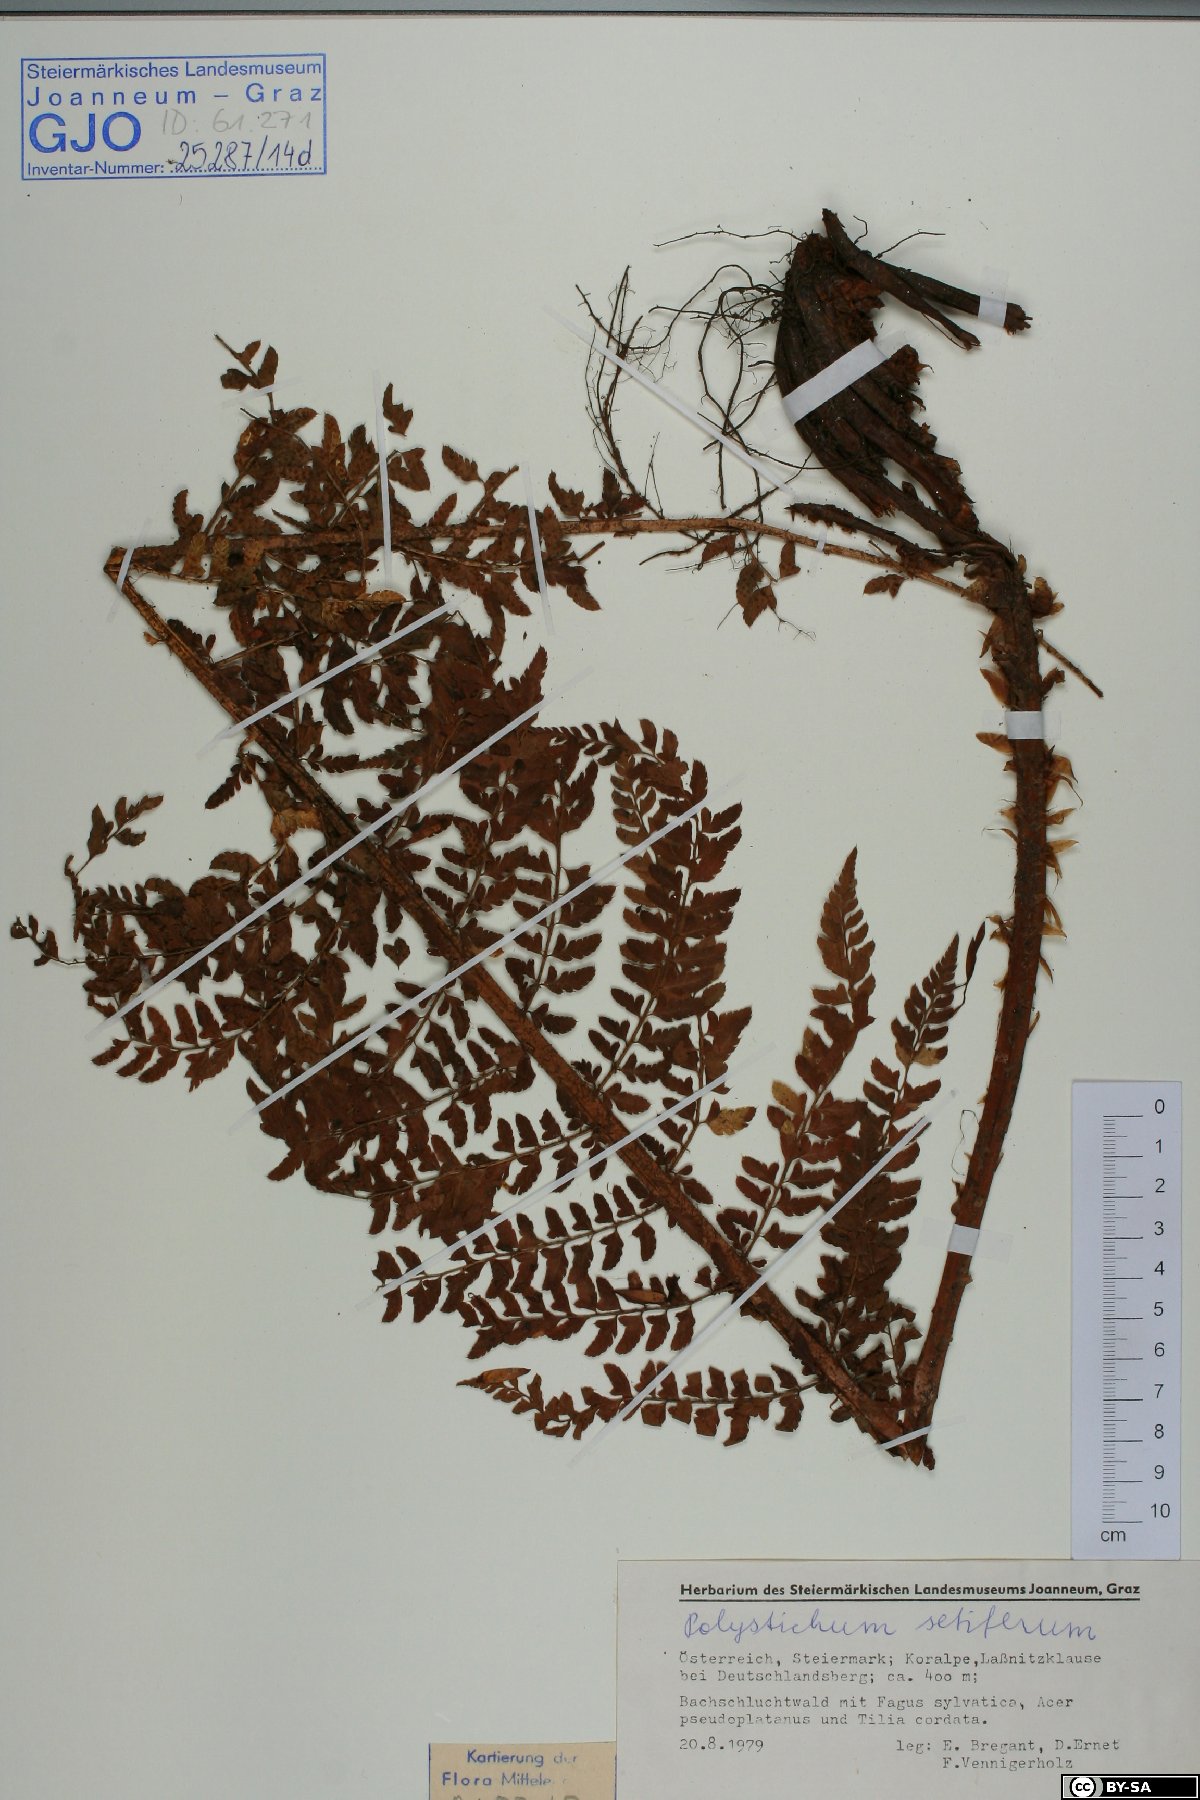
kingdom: Plantae
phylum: Tracheophyta
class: Polypodiopsida
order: Polypodiales
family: Dryopteridaceae
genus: Polystichum
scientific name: Polystichum setiferum
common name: Soft shield-fern
